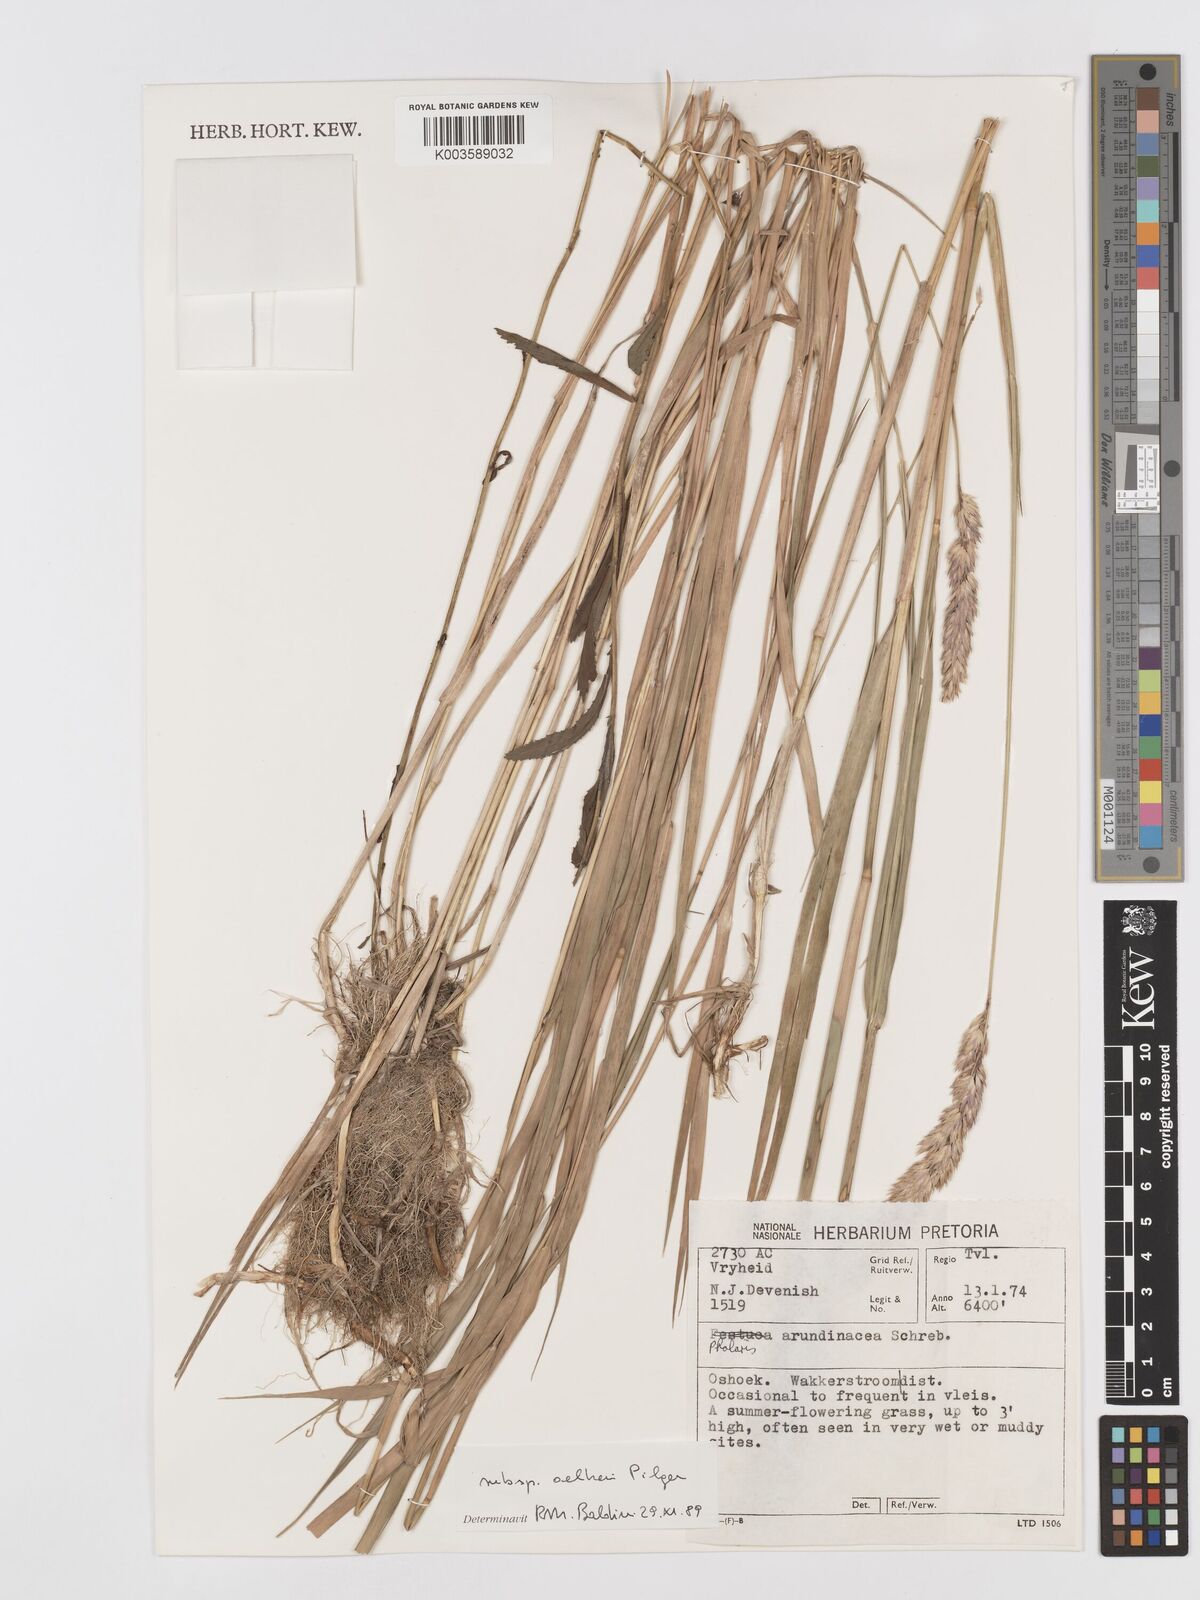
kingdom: Plantae
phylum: Tracheophyta
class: Liliopsida
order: Poales
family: Poaceae
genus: Phalaris
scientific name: Phalaris arundinacea
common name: Reed canary-grass
